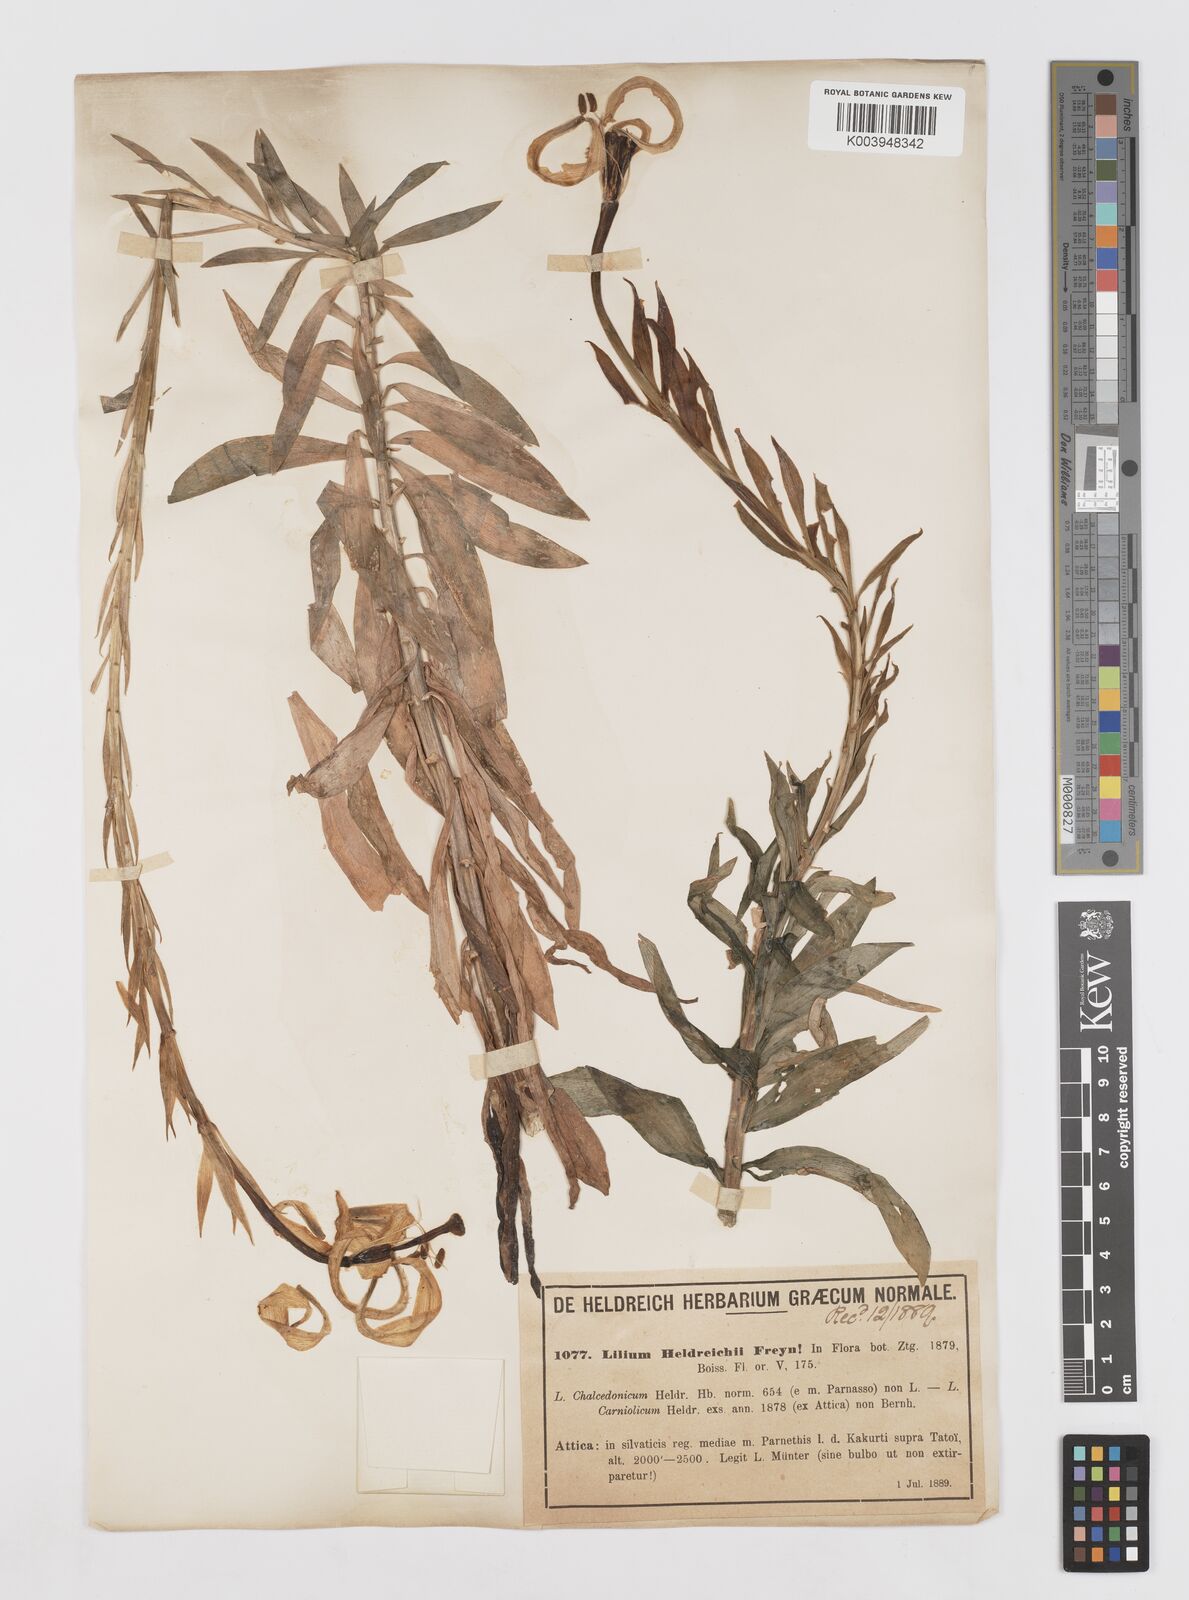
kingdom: Plantae
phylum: Tracheophyta
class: Liliopsida
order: Liliales
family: Liliaceae
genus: Lilium
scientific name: Lilium
